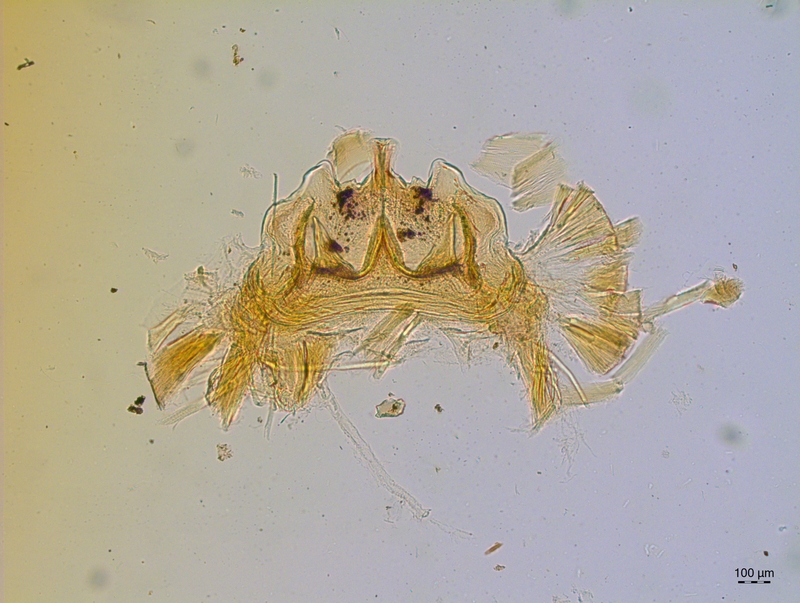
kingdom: Animalia
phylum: Arthropoda
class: Diplopoda
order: Chordeumatida
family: Craspedosomatidae
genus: Craspedosoma
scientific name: Craspedosoma rawlinsii
